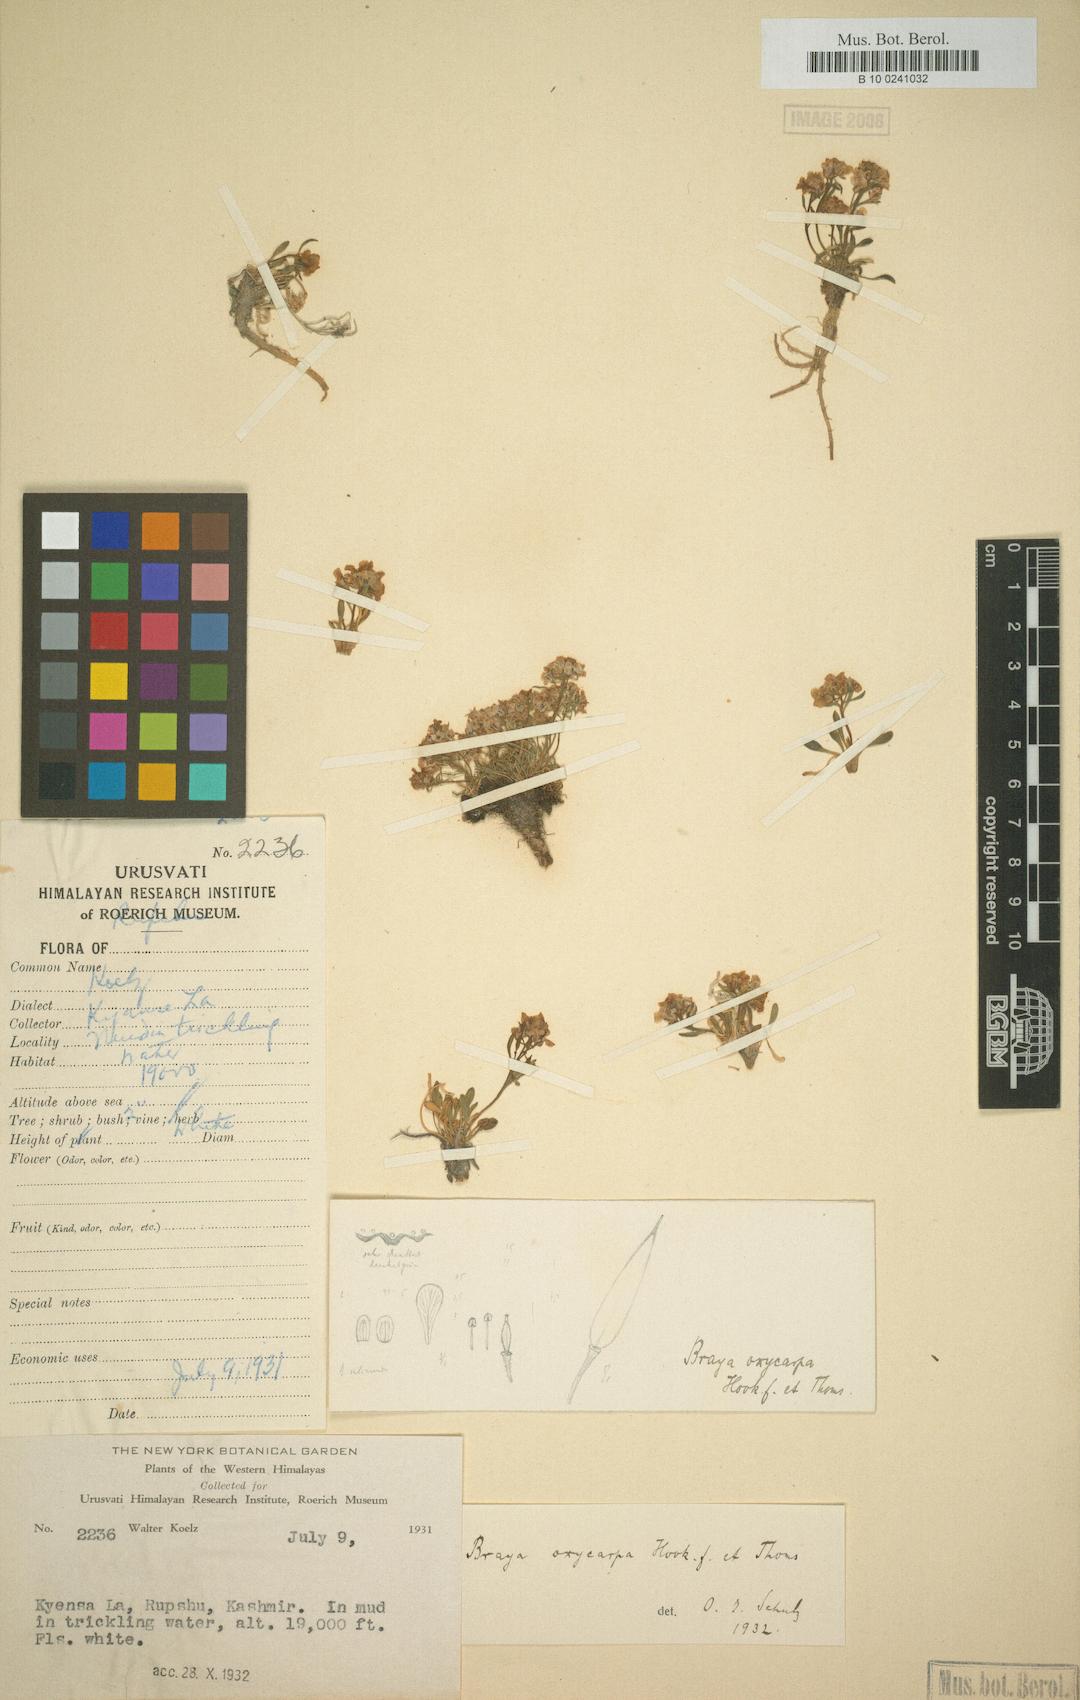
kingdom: Plantae
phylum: Tracheophyta
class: Magnoliopsida
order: Brassicales
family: Brassicaceae
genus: Aphragmus
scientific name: Aphragmus oxycarpus
